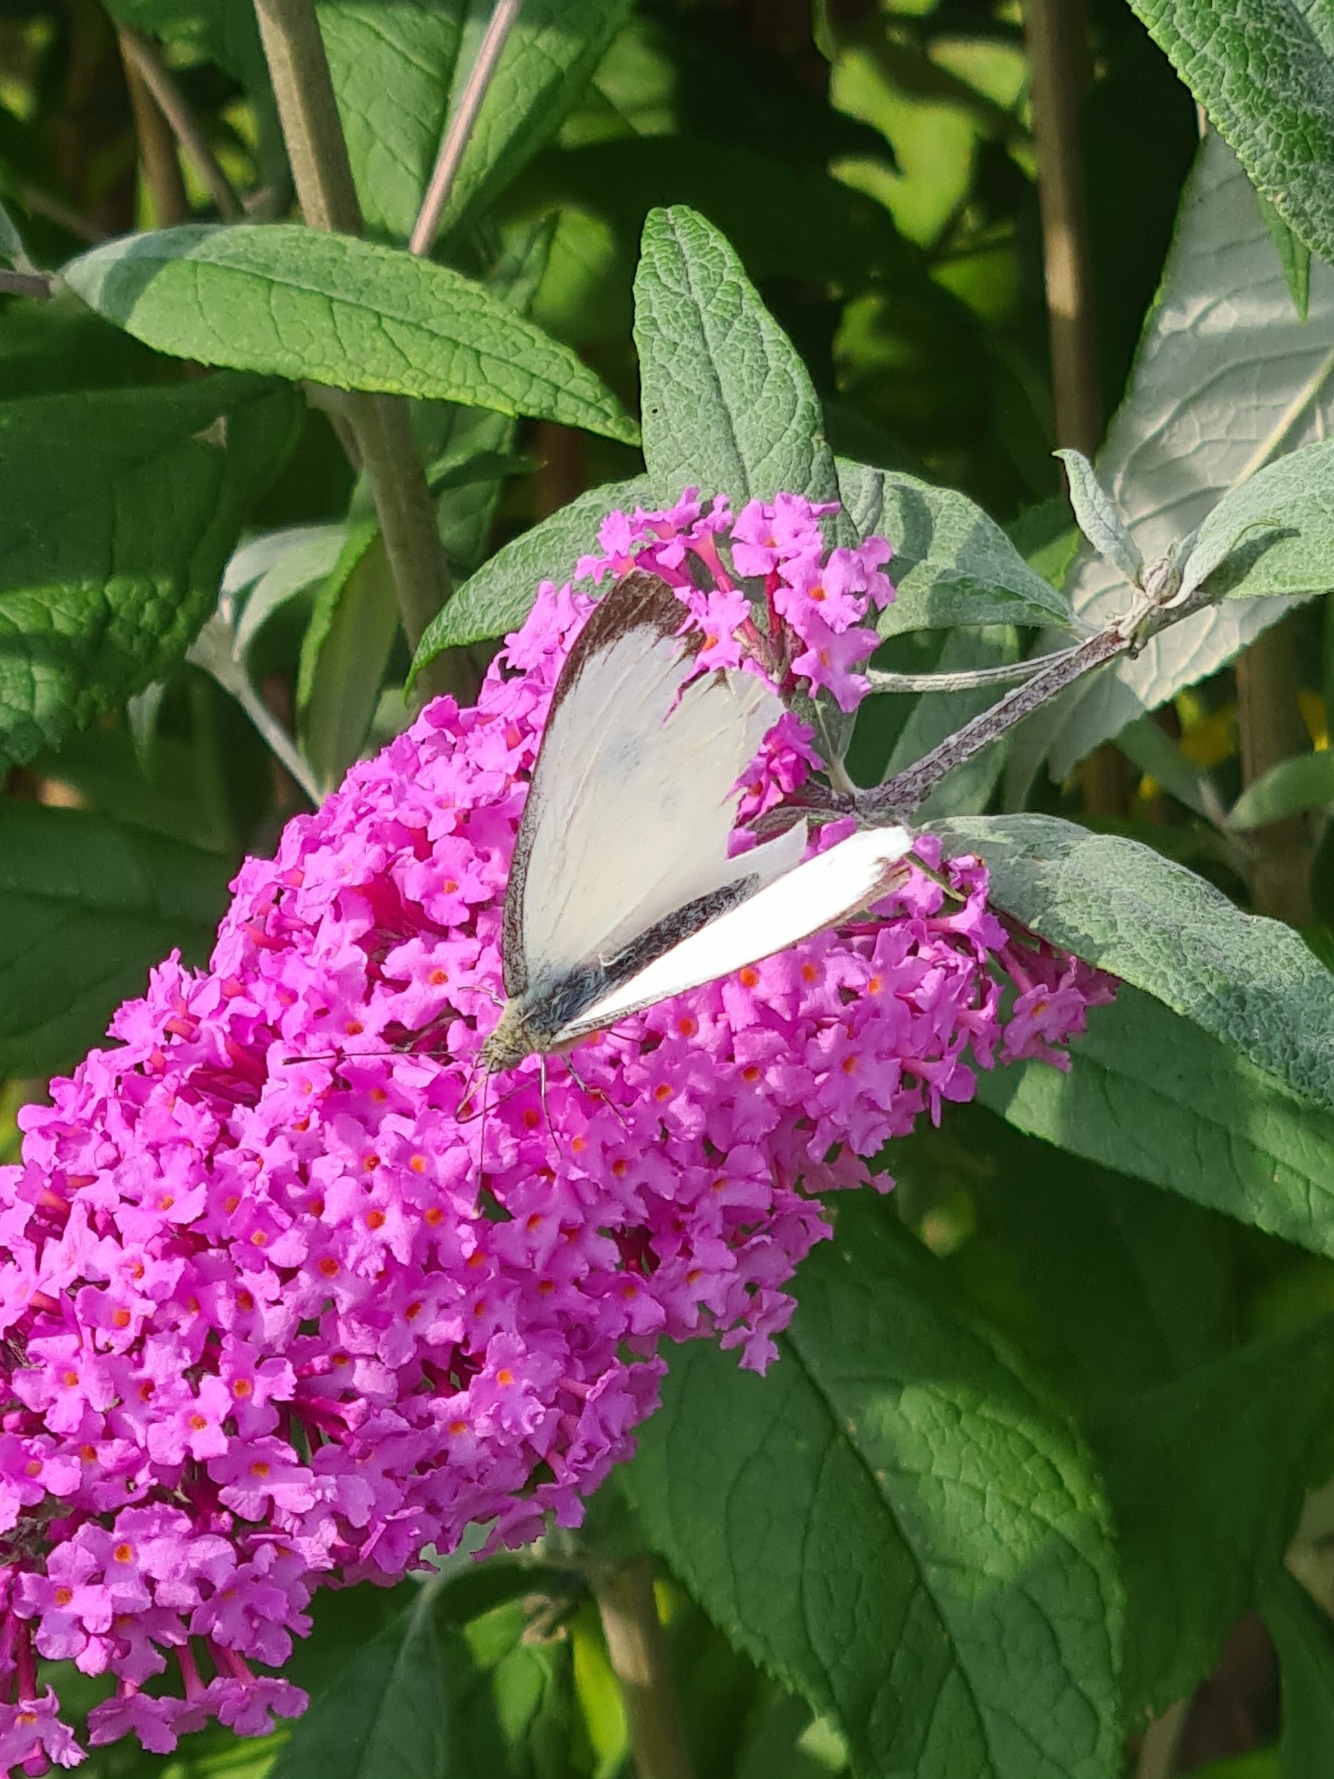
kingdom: Animalia
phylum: Arthropoda
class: Insecta
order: Lepidoptera
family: Pieridae
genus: Pieris
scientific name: Pieris brassicae
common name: Stor kålsommerfugl
